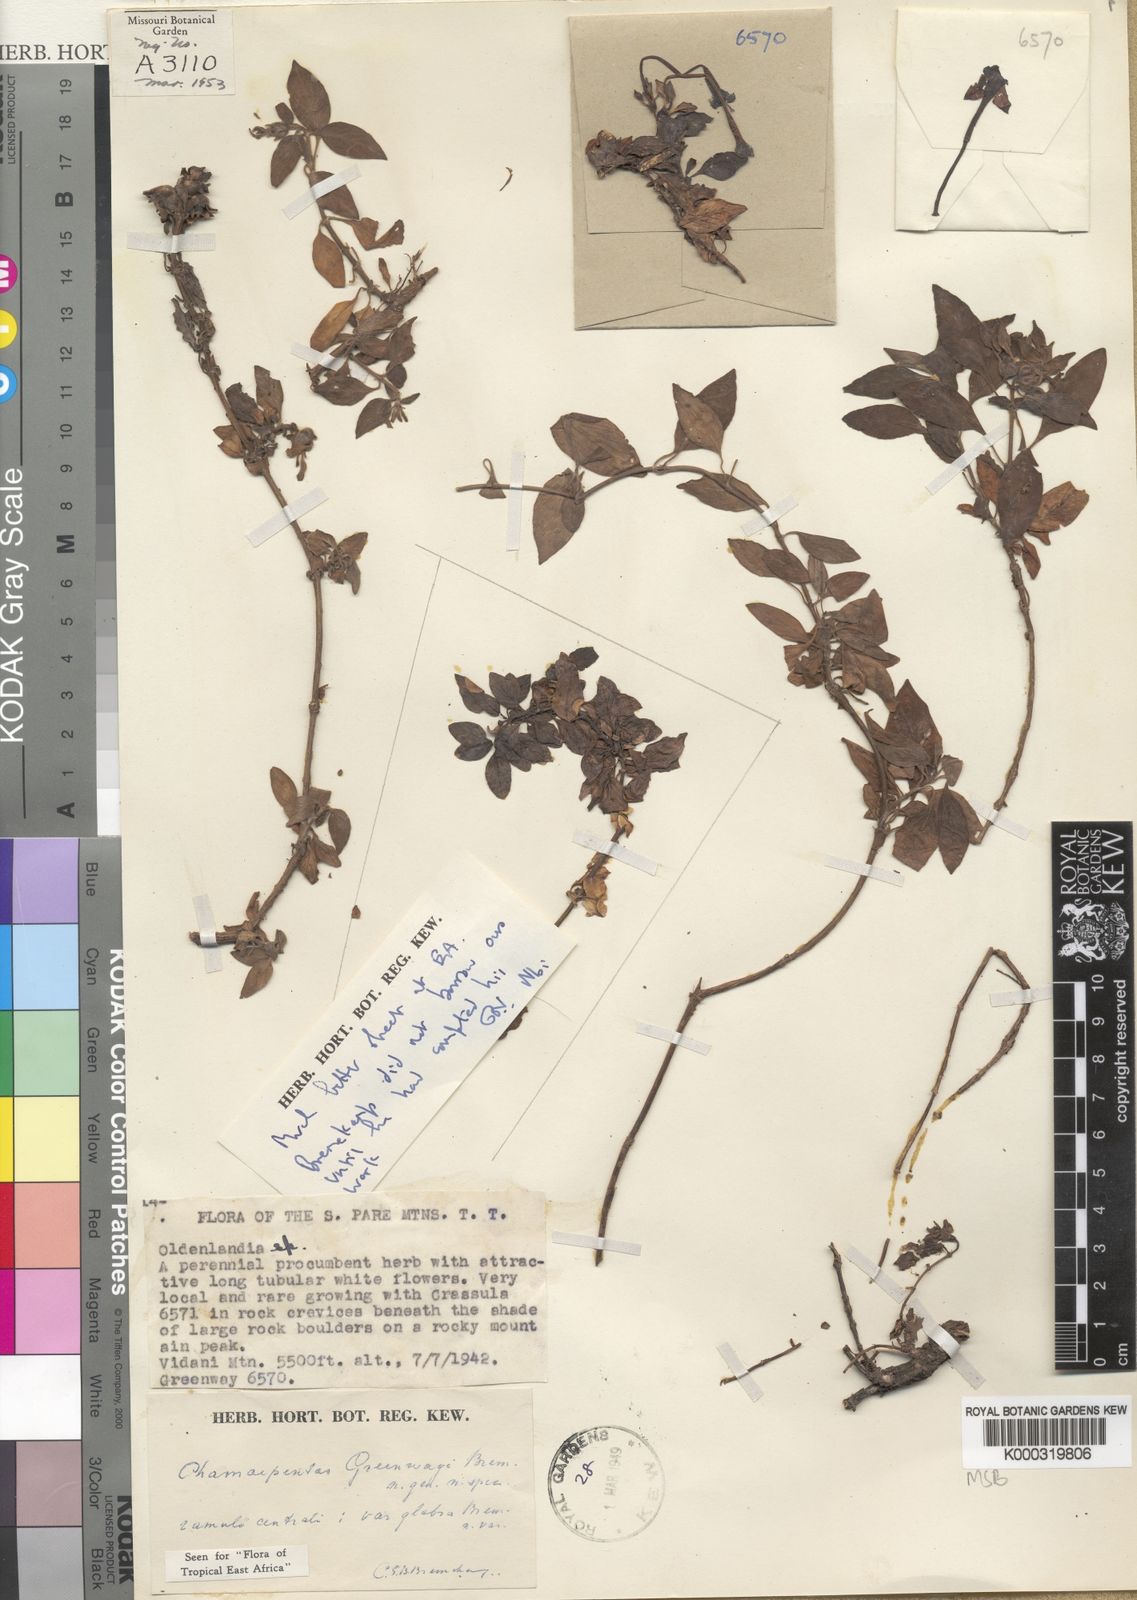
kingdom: Plantae
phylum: Tracheophyta
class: Magnoliopsida
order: Gentianales
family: Rubiaceae
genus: Chamaepentas
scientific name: Chamaepentas greenwayi
